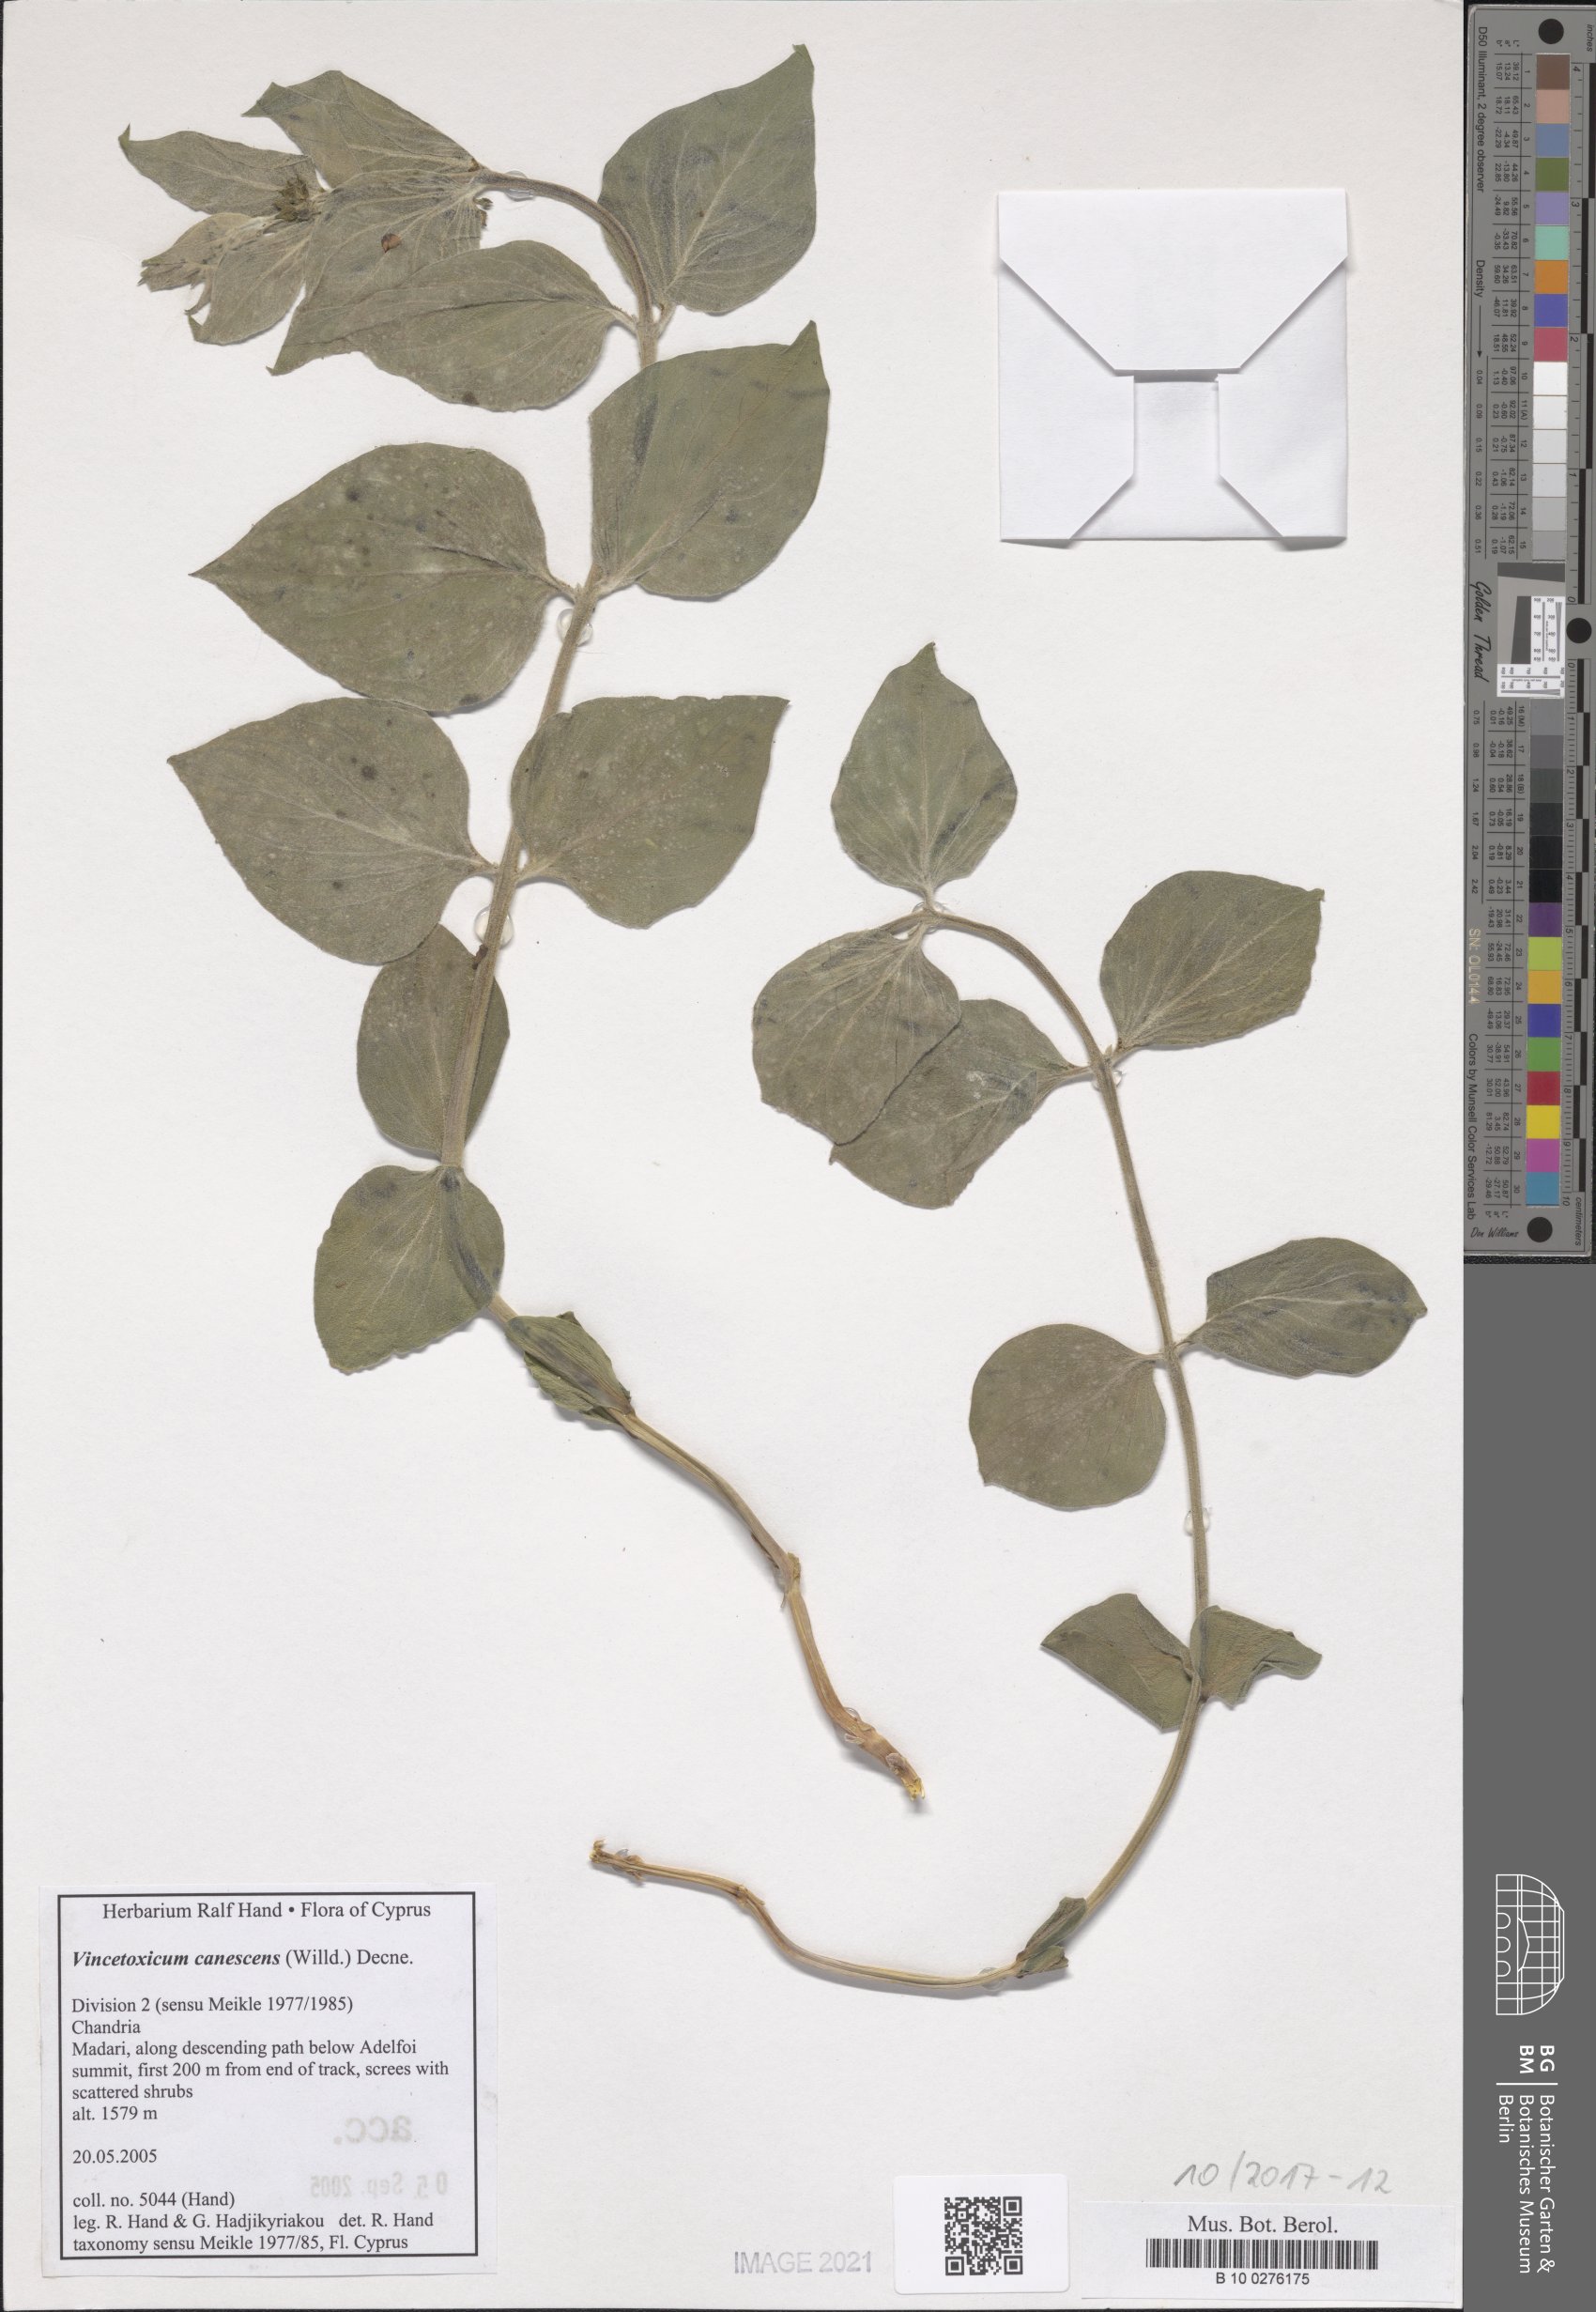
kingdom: Plantae
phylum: Tracheophyta
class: Magnoliopsida
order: Gentianales
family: Apocynaceae
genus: Vincetoxicum
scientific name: Vincetoxicum canescens
